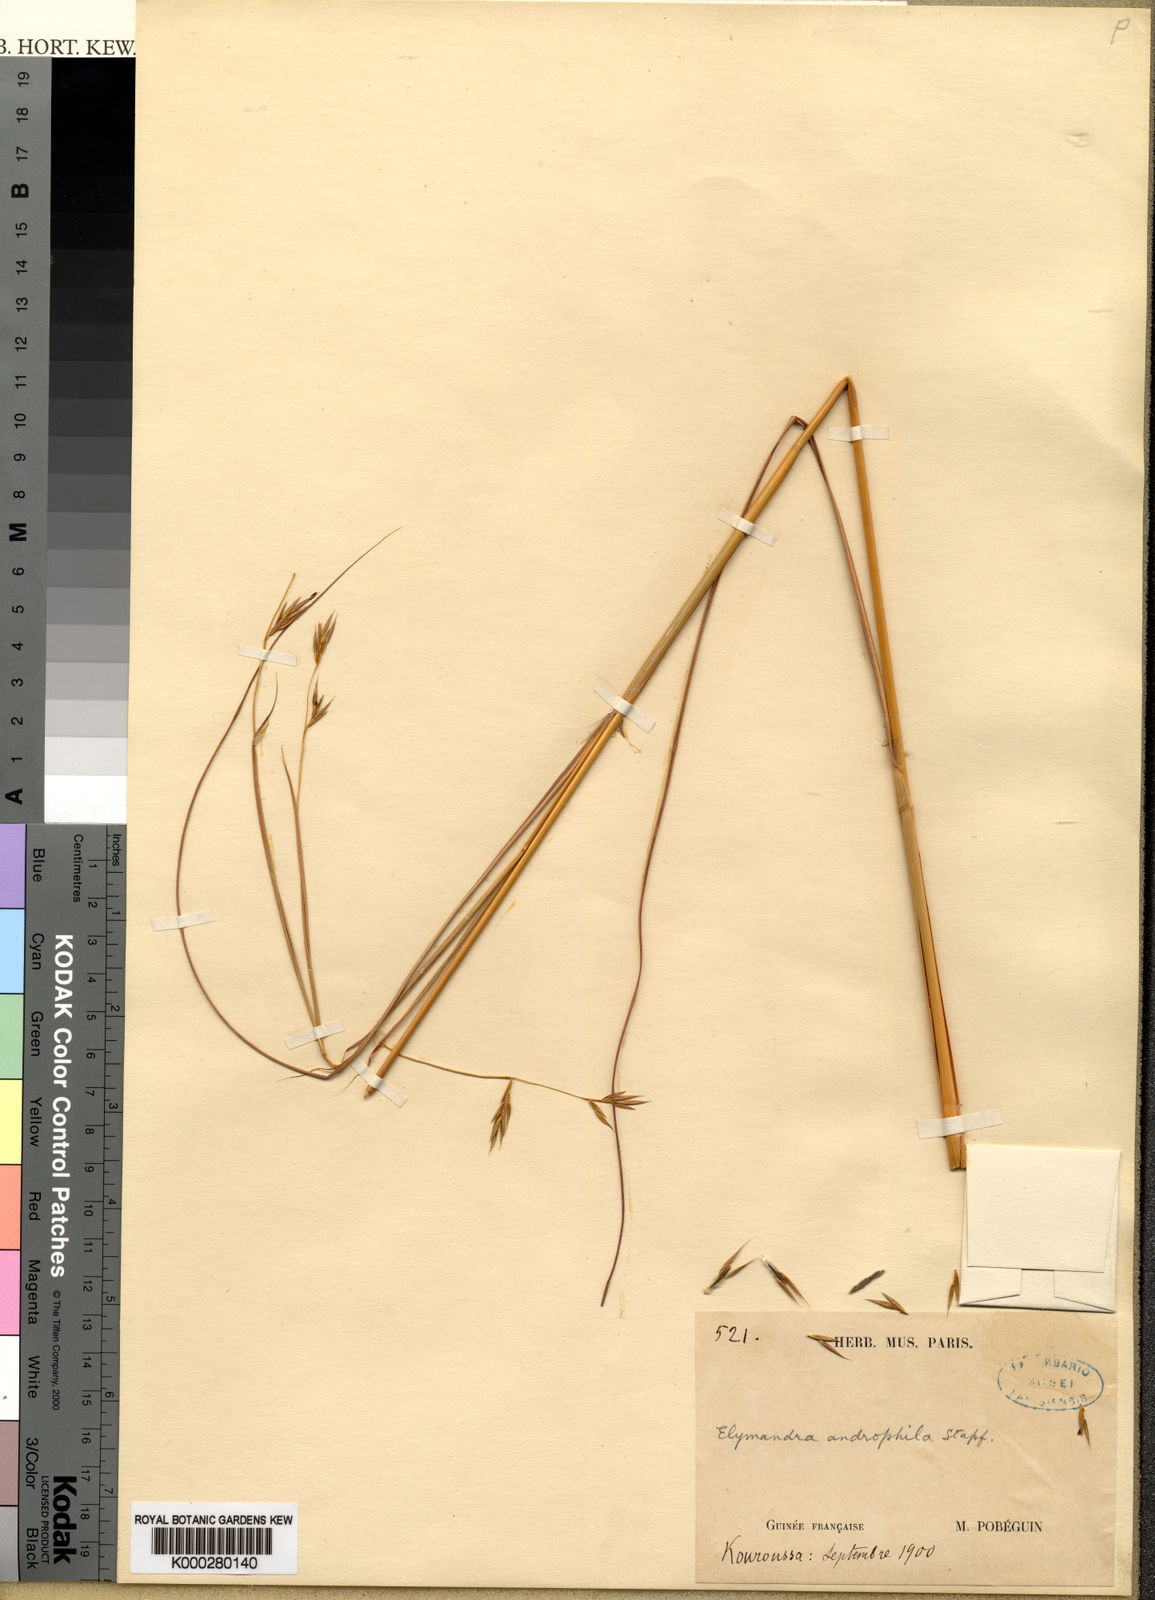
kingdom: Plantae
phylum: Tracheophyta
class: Liliopsida
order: Poales
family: Poaceae
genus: Elymandra
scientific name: Elymandra androphila
